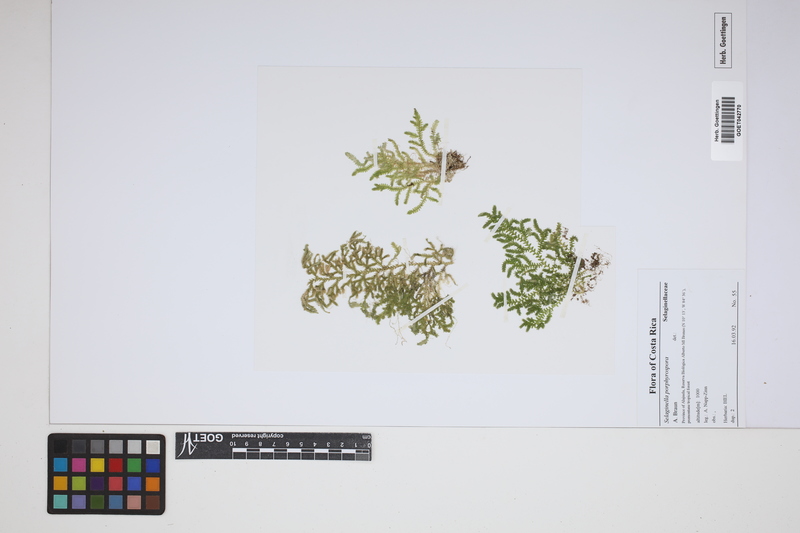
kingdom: Plantae
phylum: Tracheophyta
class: Lycopodiopsida
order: Selaginellales
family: Selaginellaceae
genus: Selaginella
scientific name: Selaginella porphyrospora
